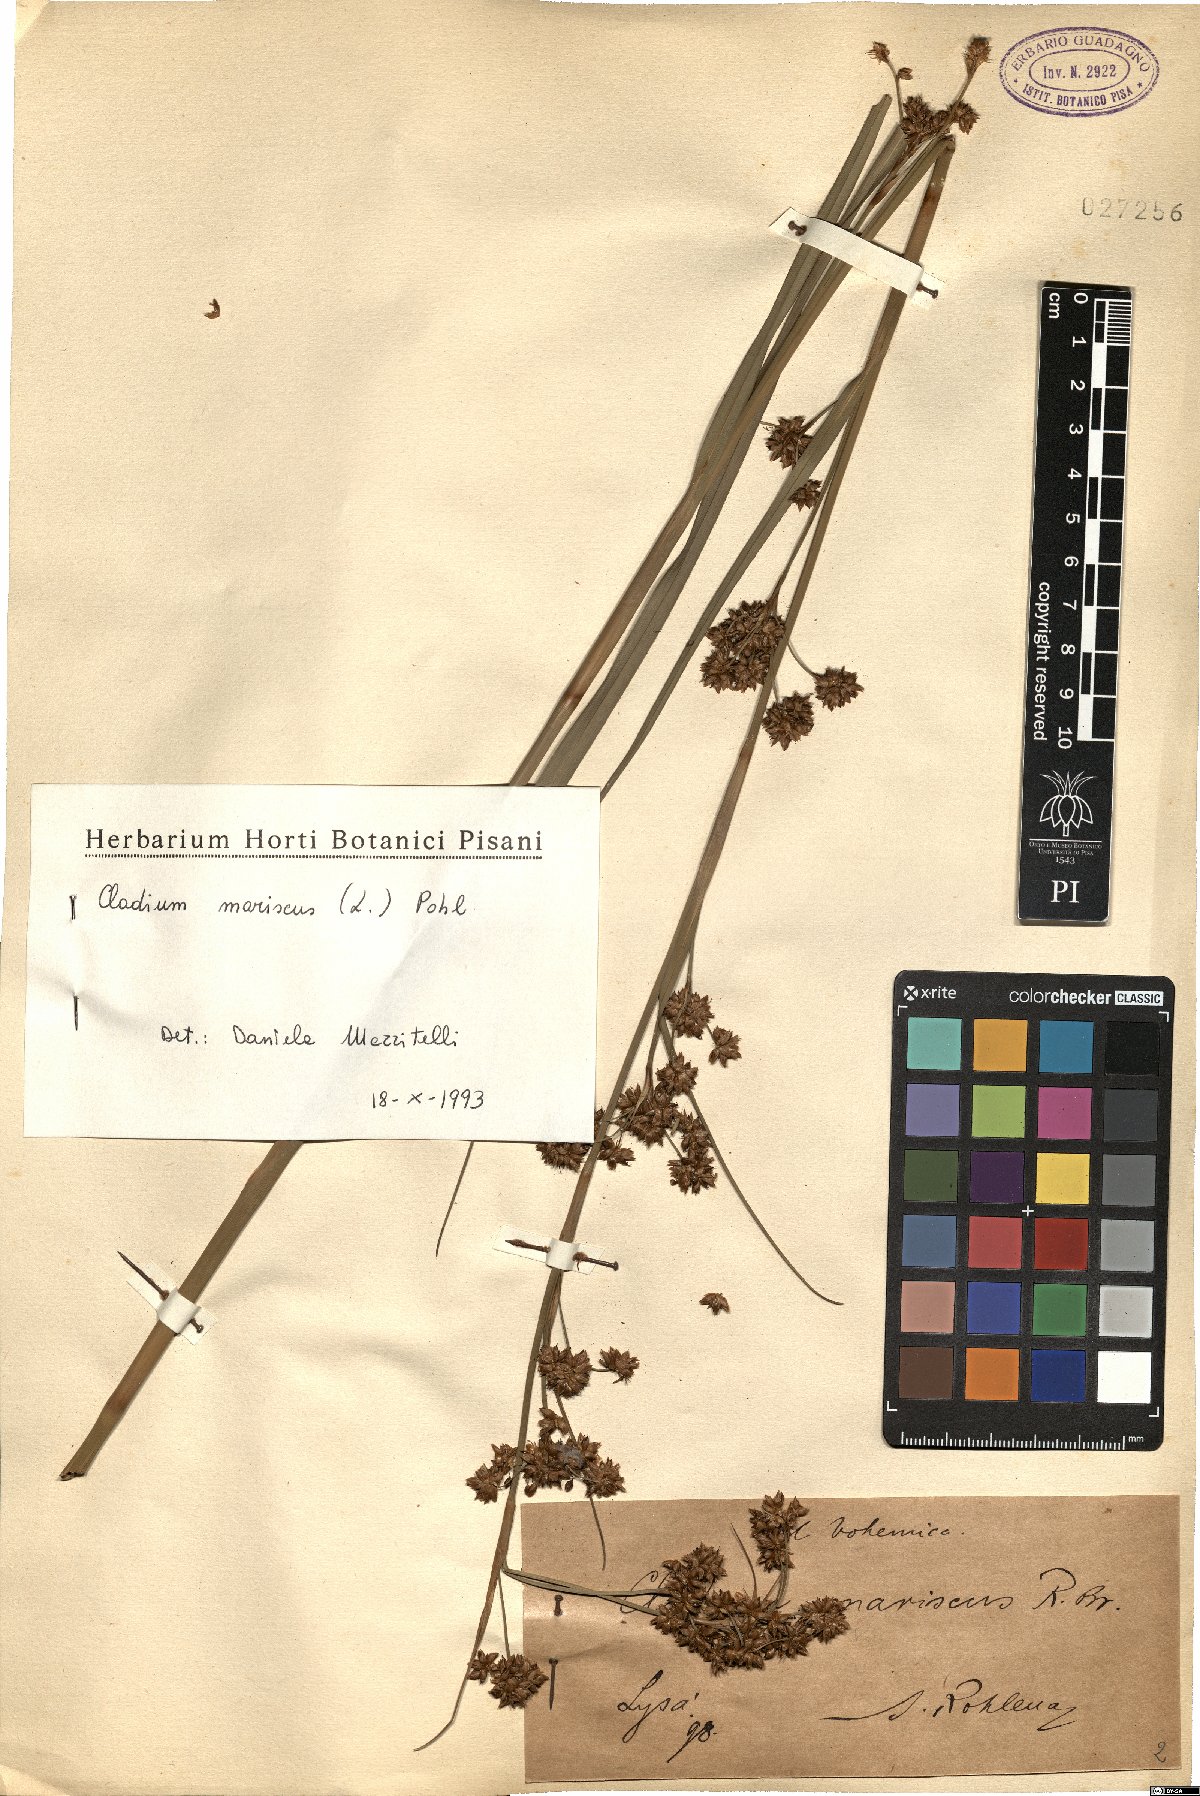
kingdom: Plantae
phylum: Tracheophyta
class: Liliopsida
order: Poales
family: Cyperaceae
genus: Cladium
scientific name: Cladium mariscus
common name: Great fen-sedge
